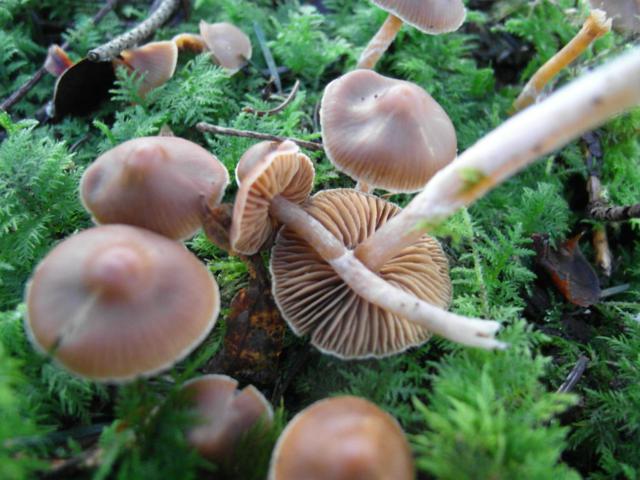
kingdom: Fungi
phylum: Basidiomycota
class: Agaricomycetes
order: Agaricales
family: Cortinariaceae
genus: Cortinarius
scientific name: Cortinarius
